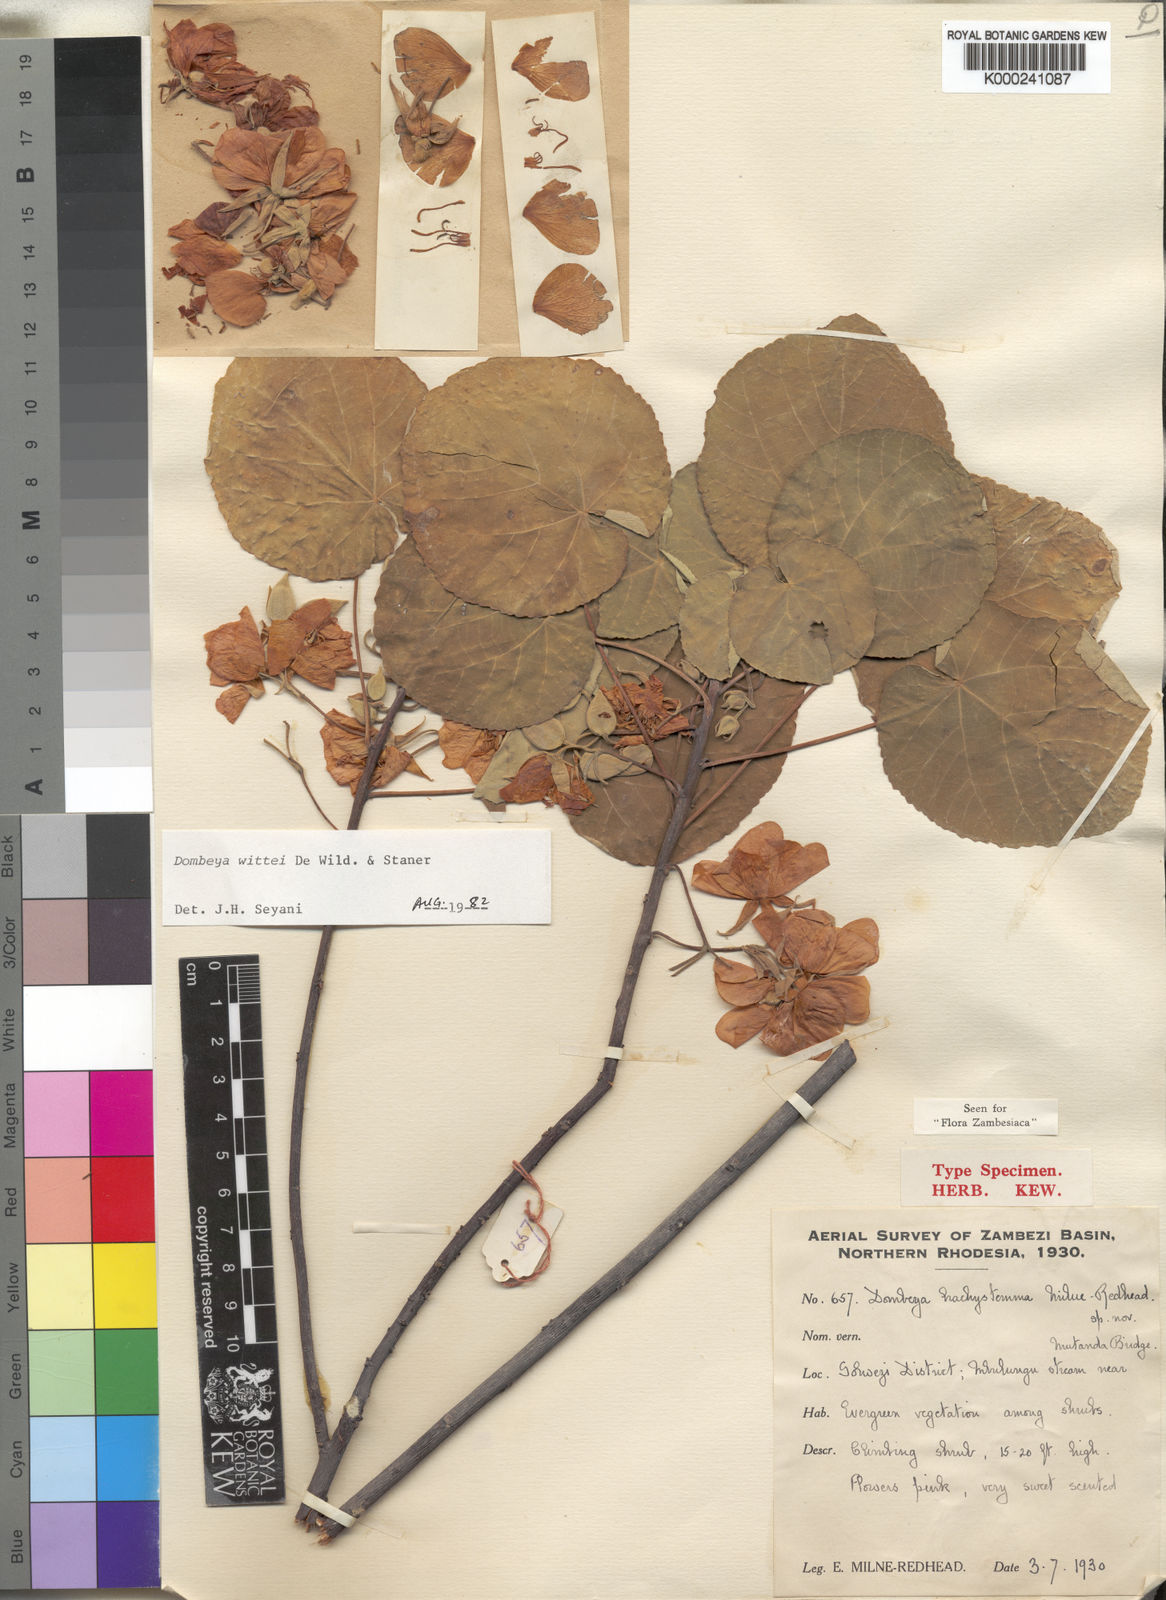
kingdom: Plantae
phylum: Tracheophyta
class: Magnoliopsida
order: Malvales
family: Malvaceae
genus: Dombeya
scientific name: Dombeya wittei
